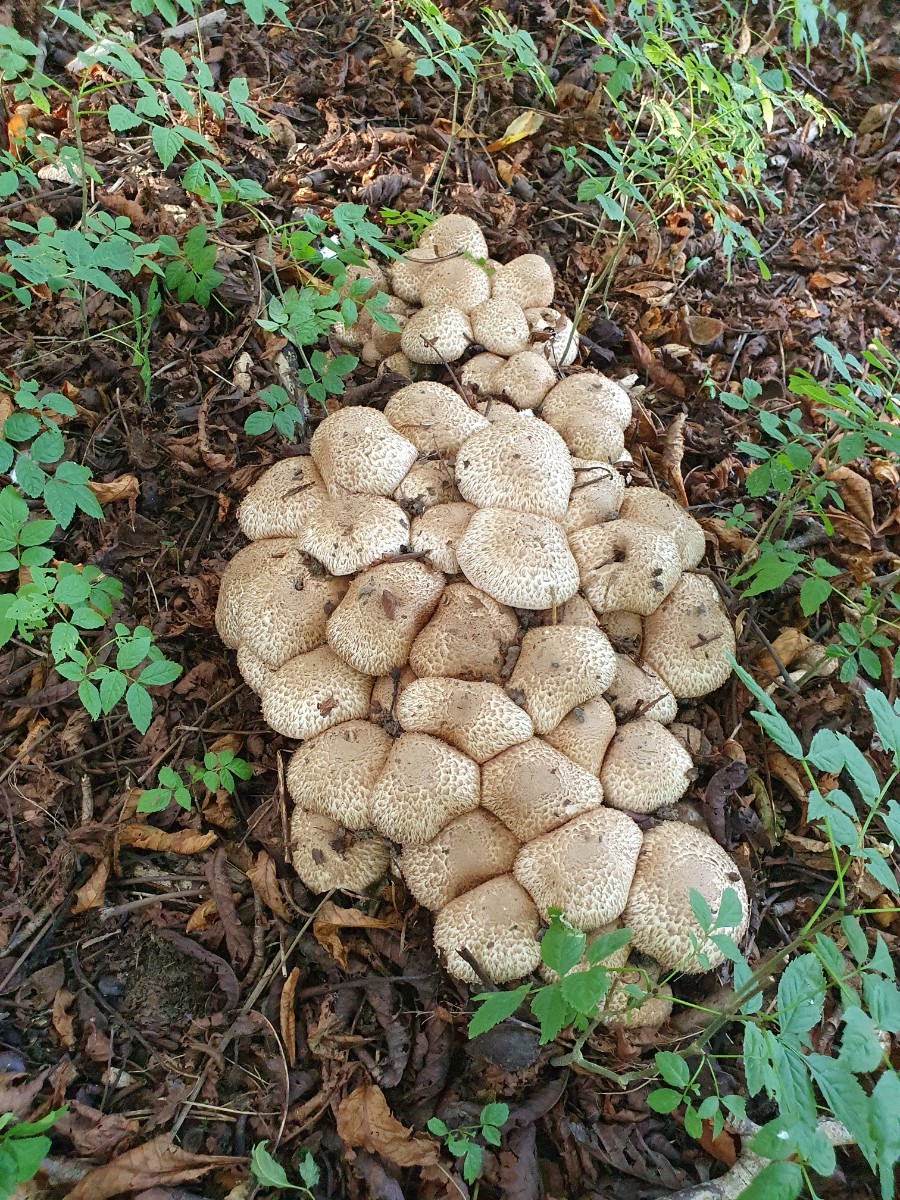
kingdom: Fungi
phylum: Basidiomycota
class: Agaricomycetes
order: Agaricales
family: Agaricaceae
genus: Agaricus
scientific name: Agaricus bohusii
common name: krumskællet champignon
